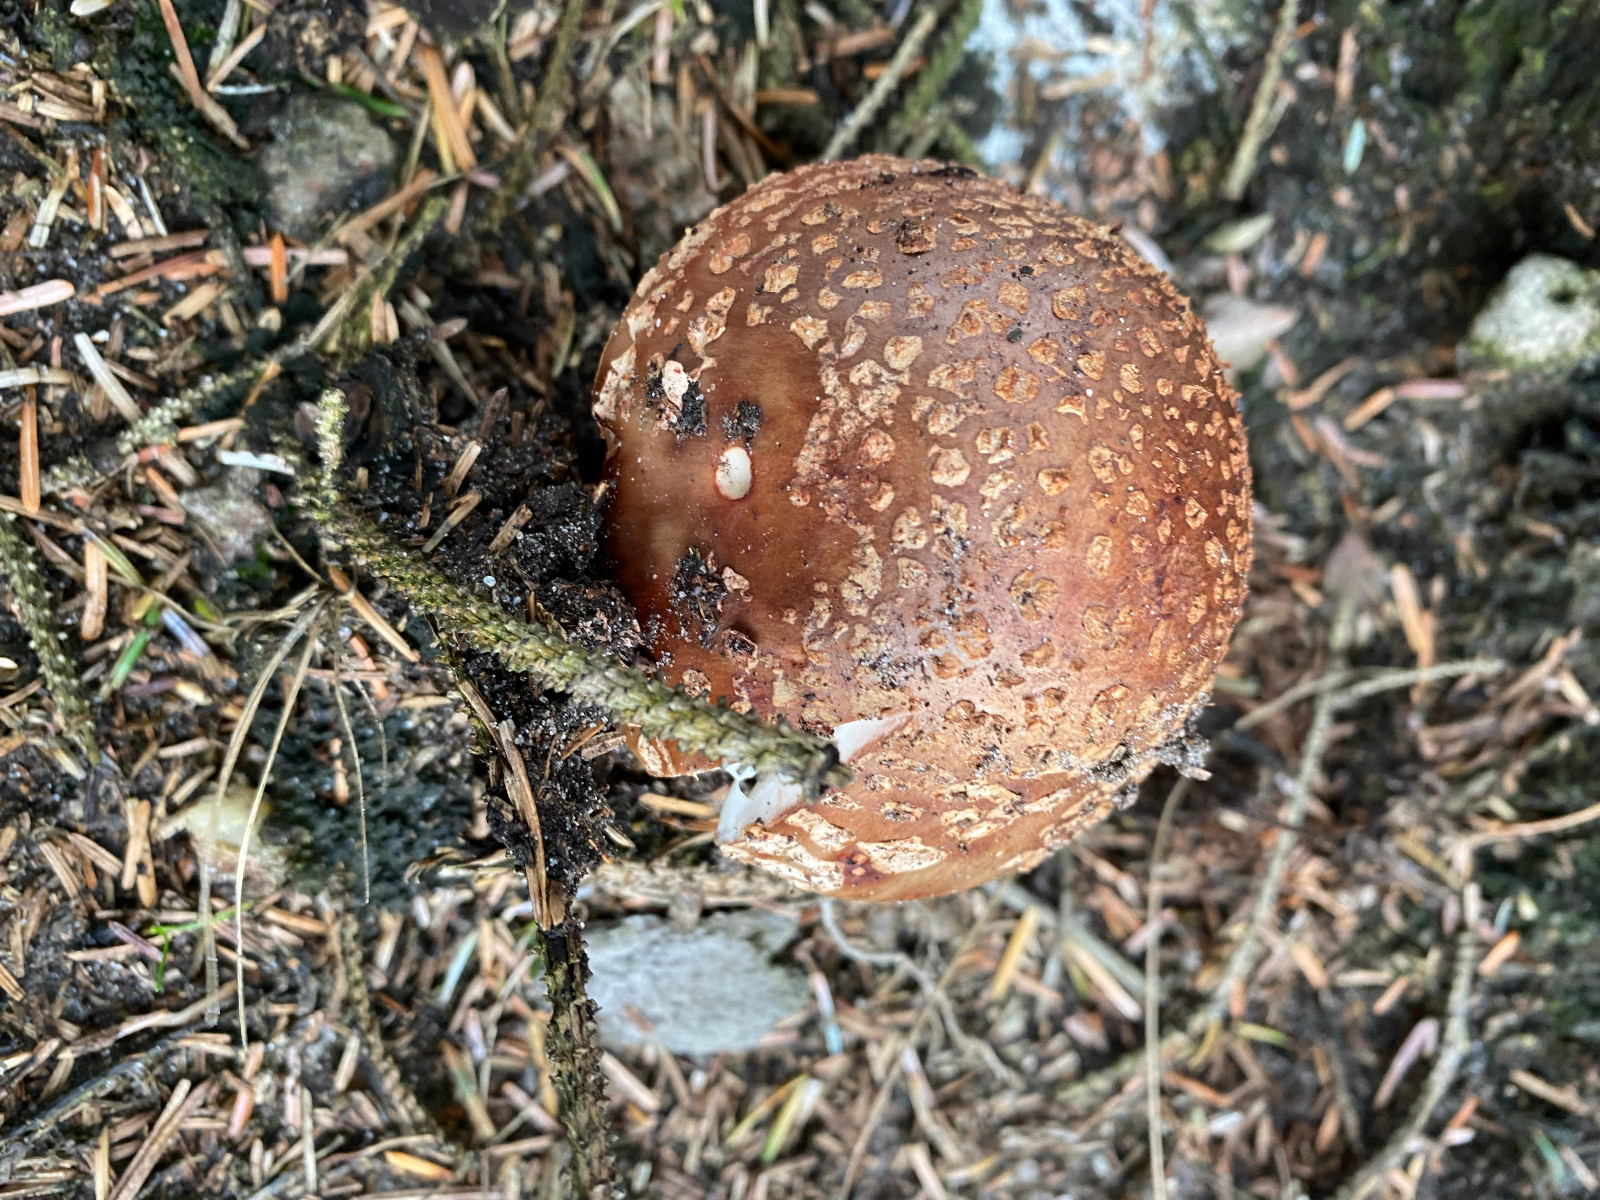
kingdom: Fungi
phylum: Basidiomycota
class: Agaricomycetes
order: Agaricales
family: Amanitaceae
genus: Amanita
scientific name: Amanita rubescens
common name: rødmende fluesvamp
